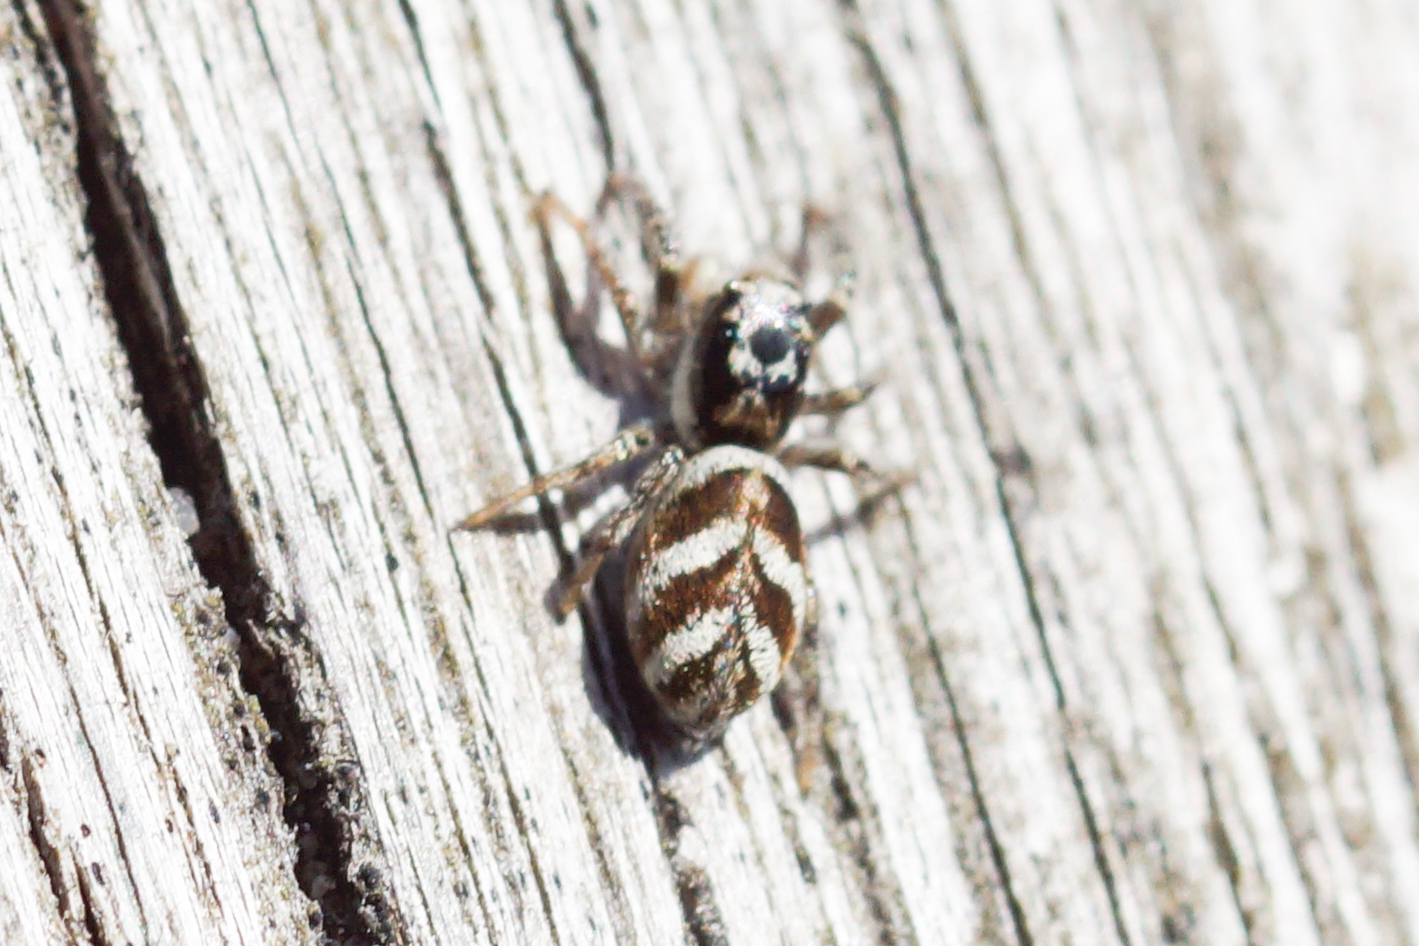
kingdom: Animalia
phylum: Arthropoda
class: Arachnida
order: Araneae
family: Salticidae
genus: Salticus
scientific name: Salticus scenicus
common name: Almindelig zebraedderkop
